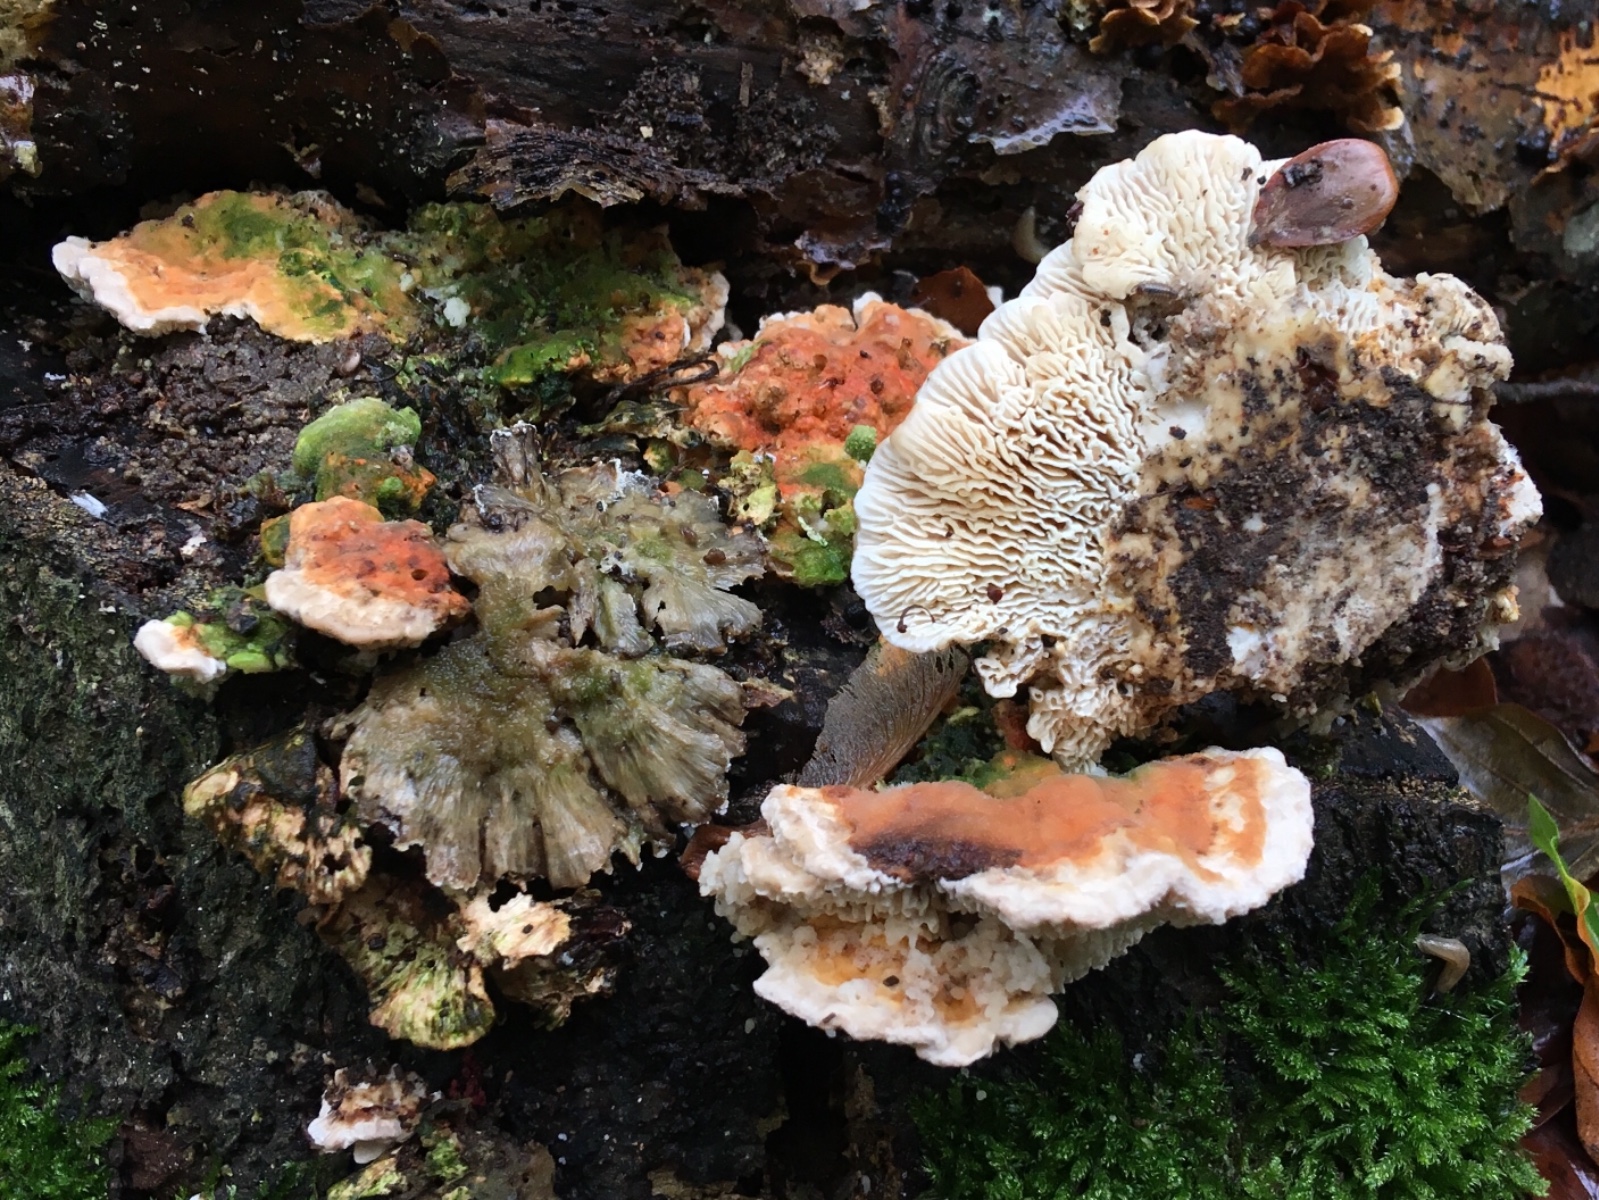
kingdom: Fungi
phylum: Basidiomycota
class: Agaricomycetes
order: Polyporales
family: Polyporaceae
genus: Lenzites
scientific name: Lenzites betulinus
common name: birke-læderporesvamp
